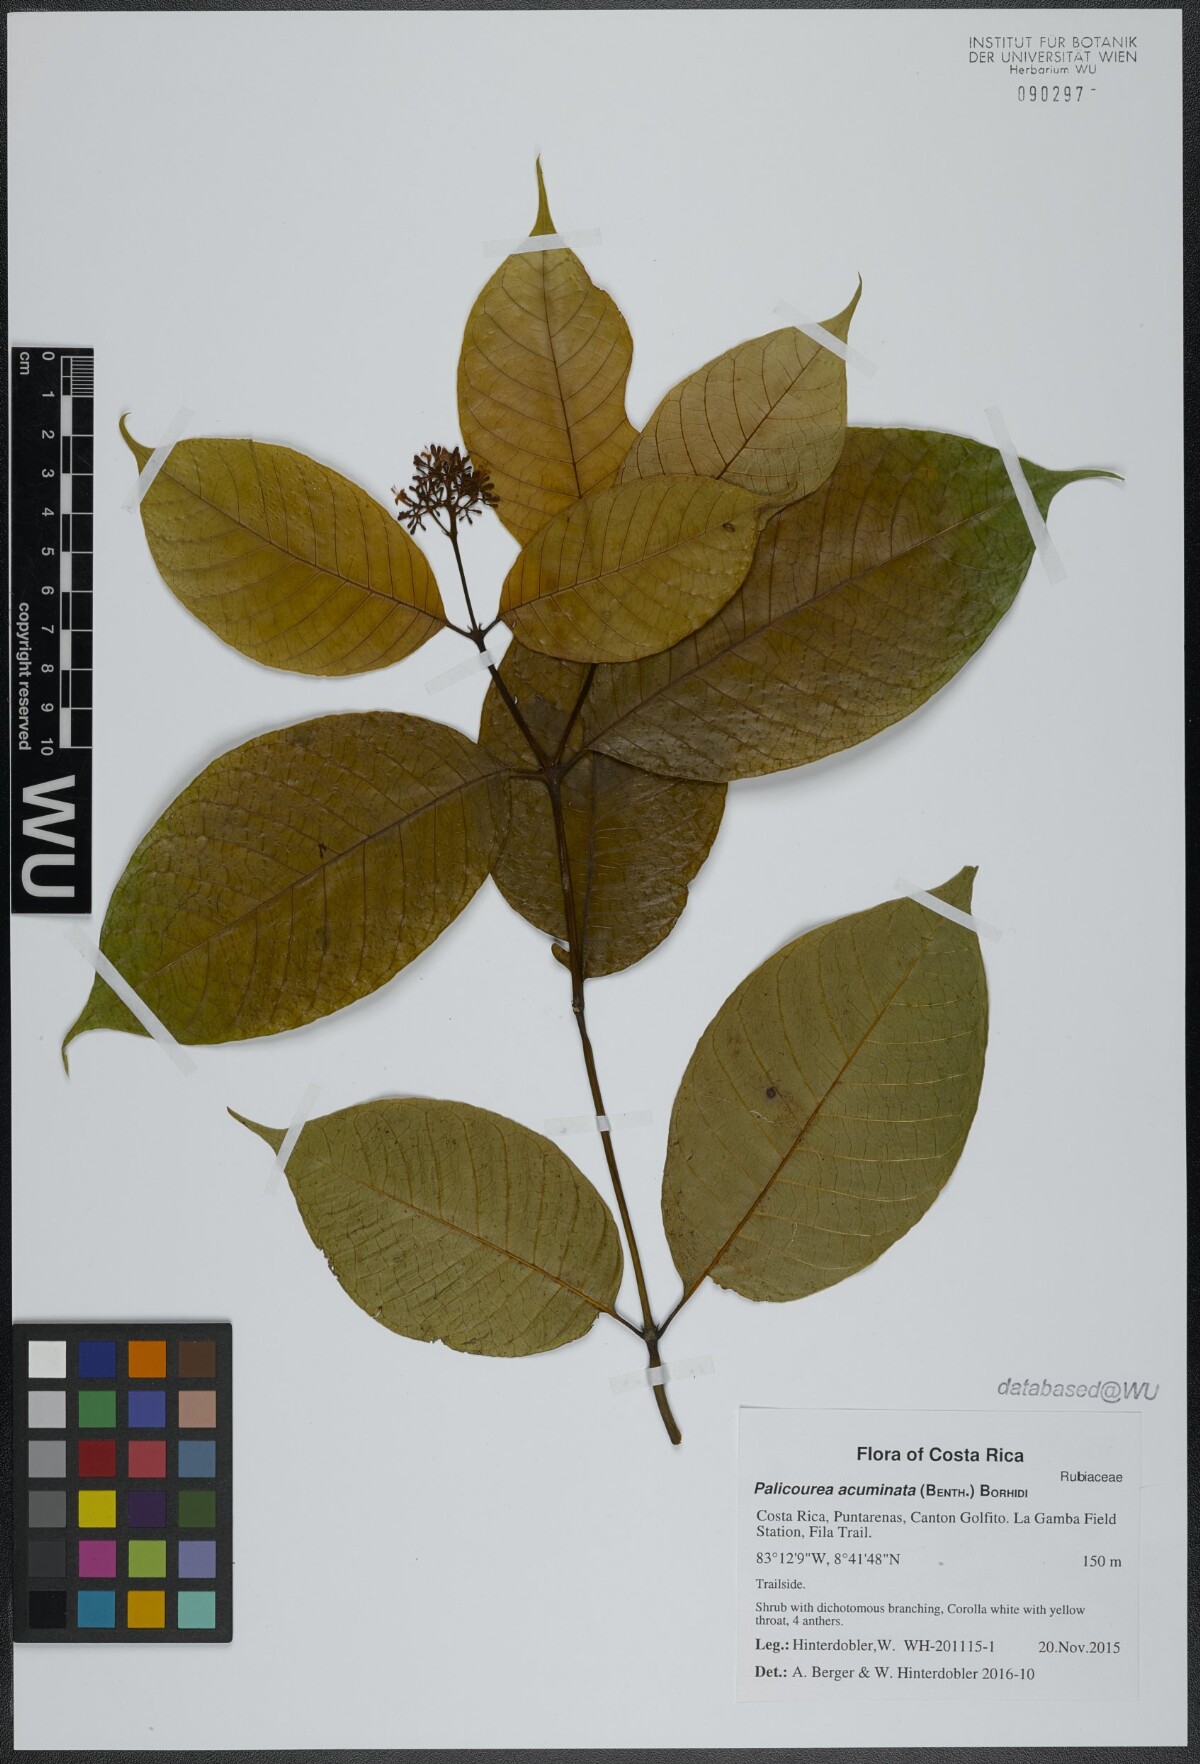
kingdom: Plantae
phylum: Tracheophyta
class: Magnoliopsida
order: Gentianales
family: Rubiaceae
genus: Palicourea
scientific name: Palicourea acuminata
